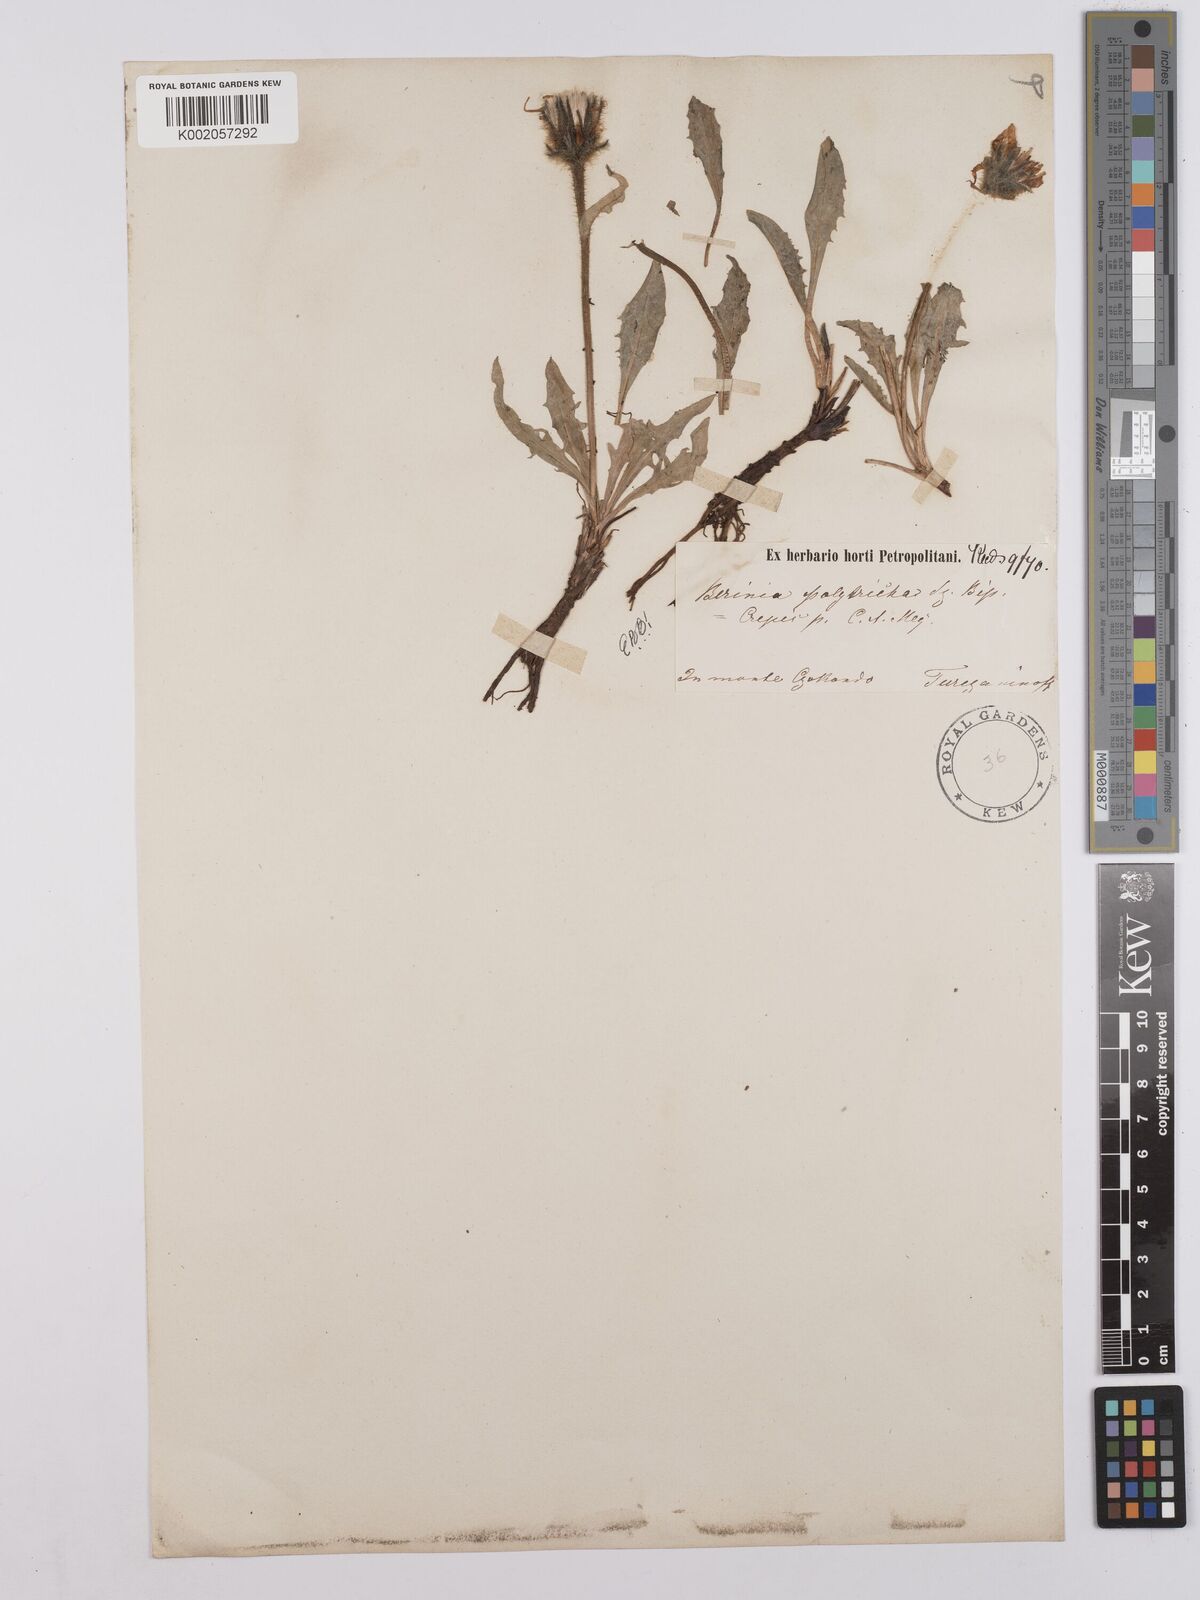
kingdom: Plantae
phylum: Tracheophyta
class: Magnoliopsida
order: Asterales
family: Asteraceae
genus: Crepis
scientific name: Crepis chrysantha
